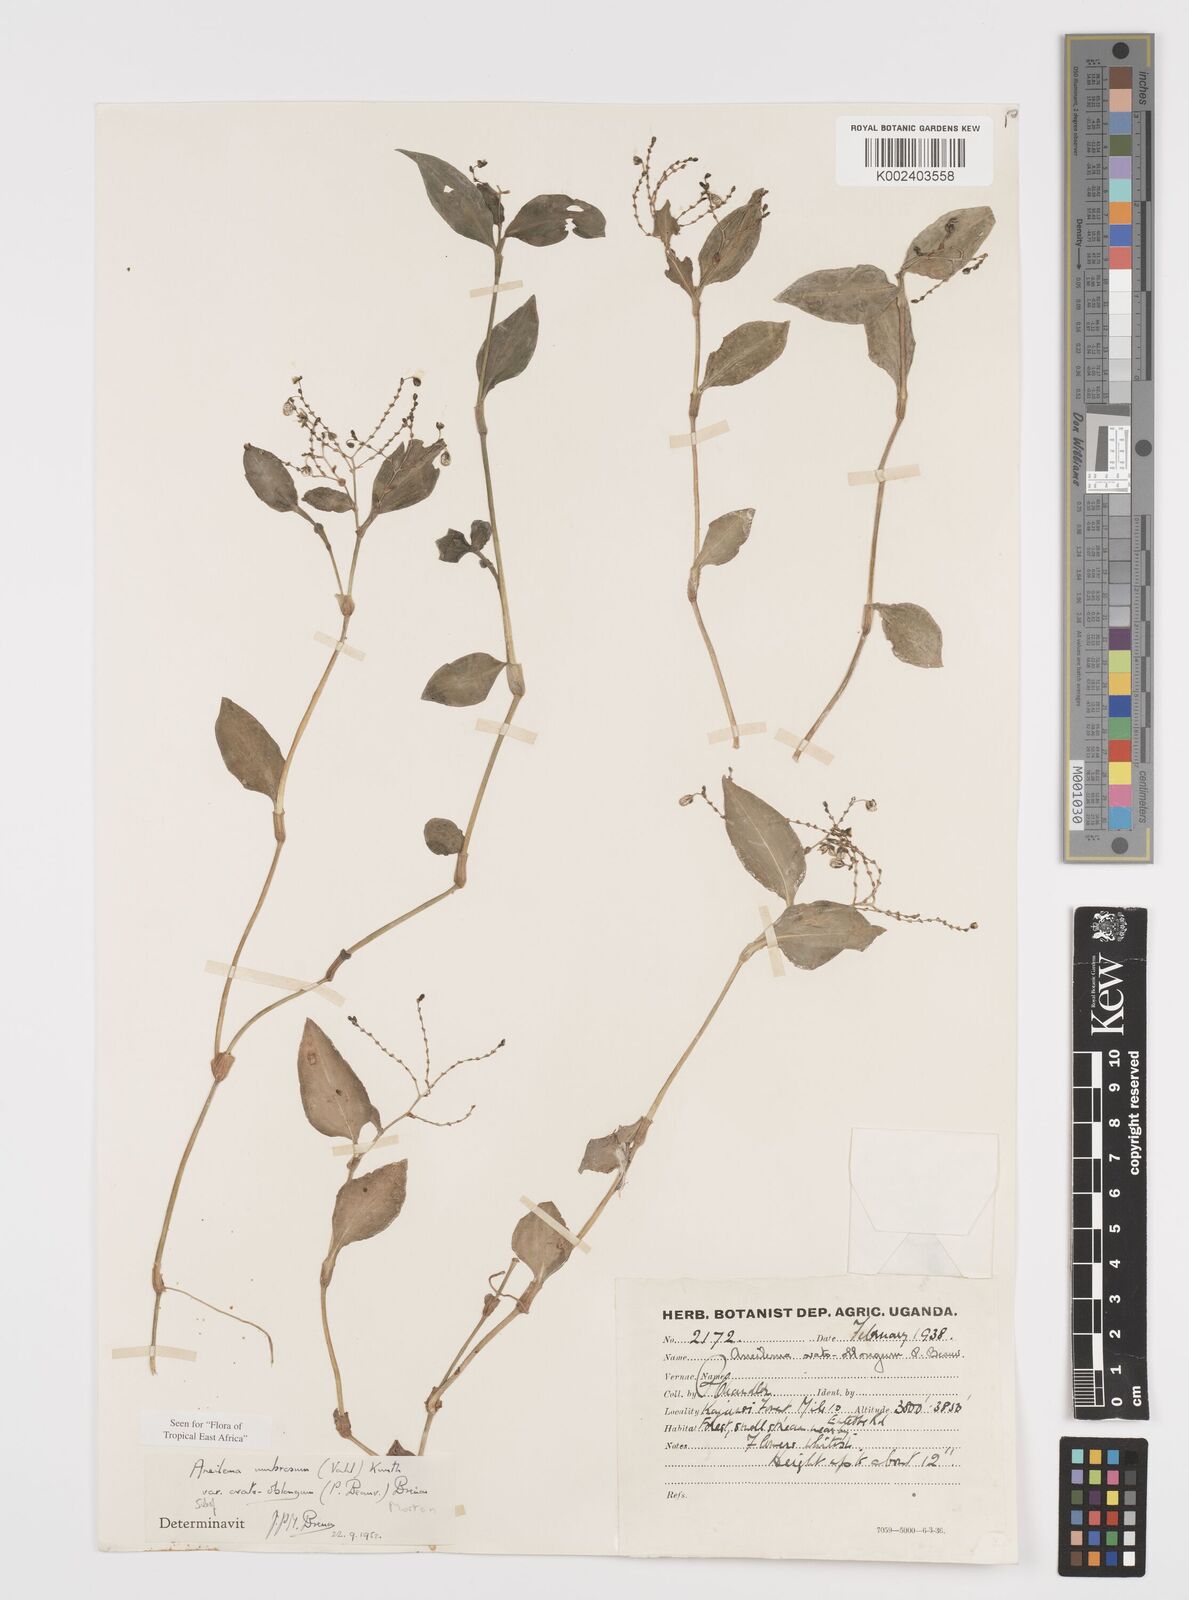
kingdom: Plantae
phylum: Tracheophyta
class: Liliopsida
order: Commelinales
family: Commelinaceae
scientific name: Commelinaceae
